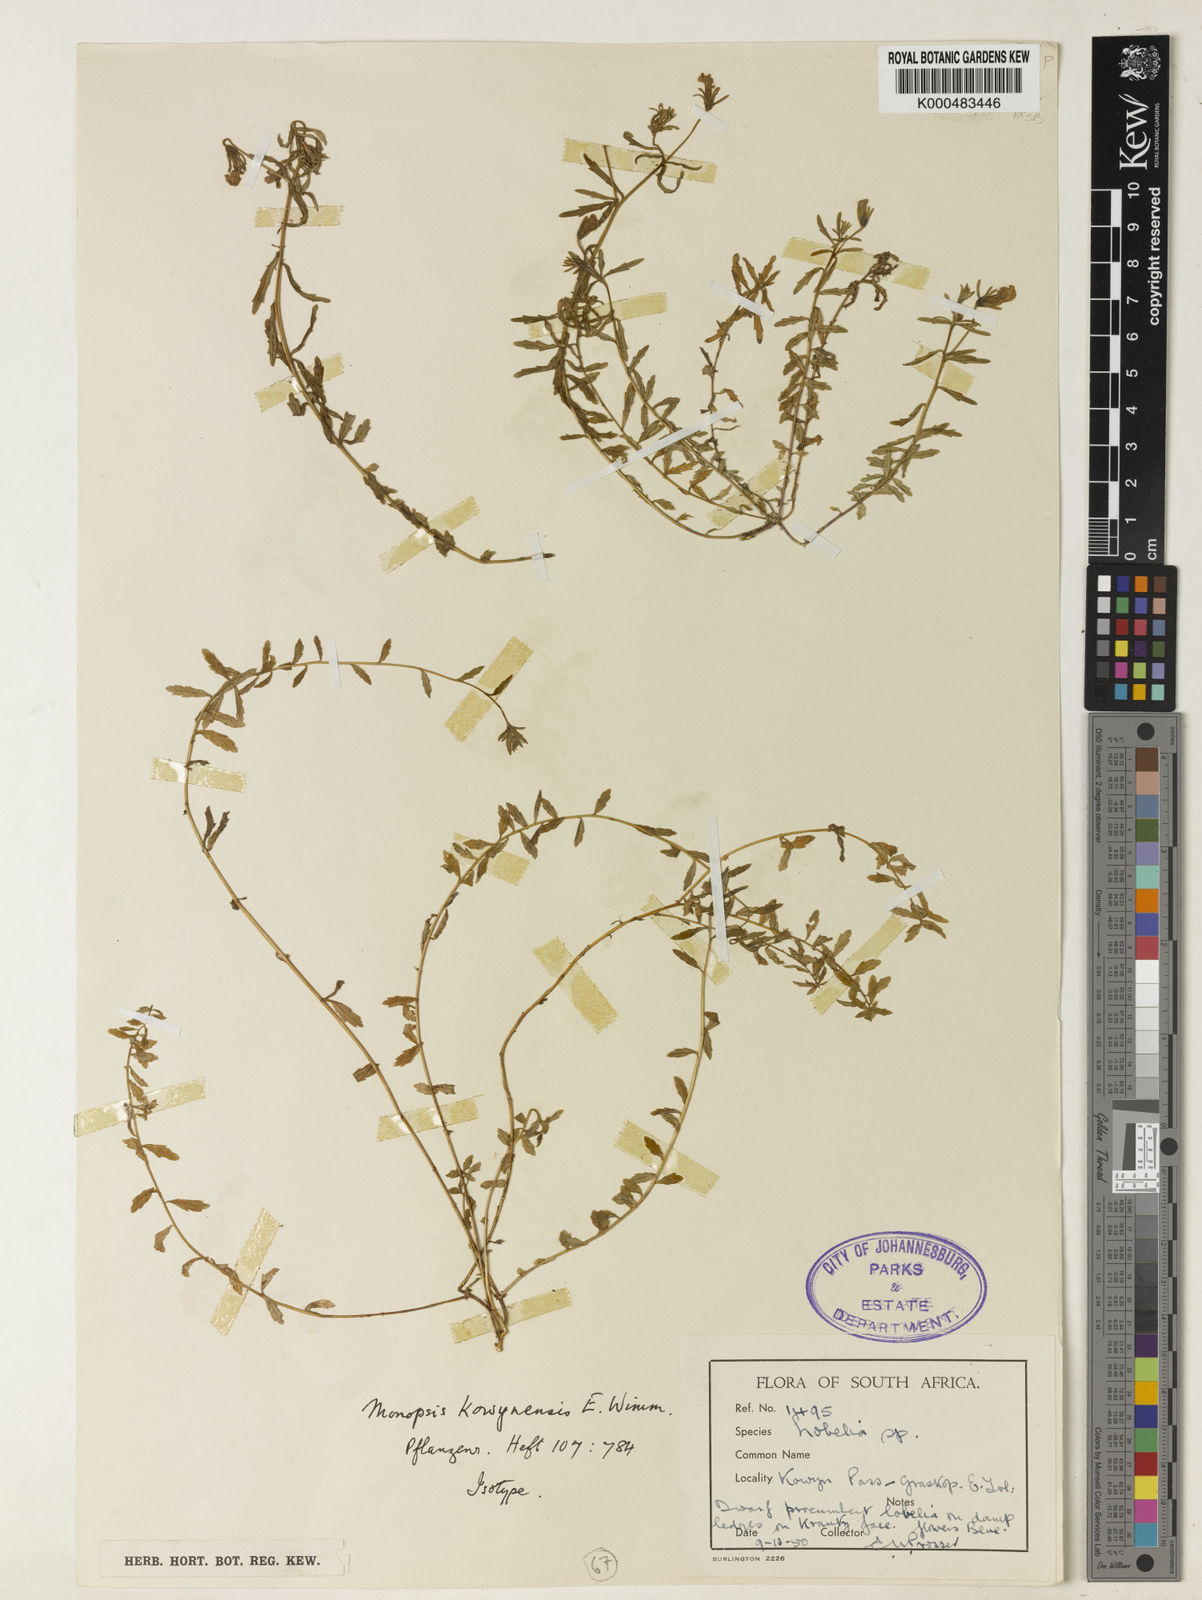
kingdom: Plantae
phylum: Tracheophyta
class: Magnoliopsida
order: Asterales
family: Campanulaceae
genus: Monopsis
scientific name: Monopsis kowynensis
